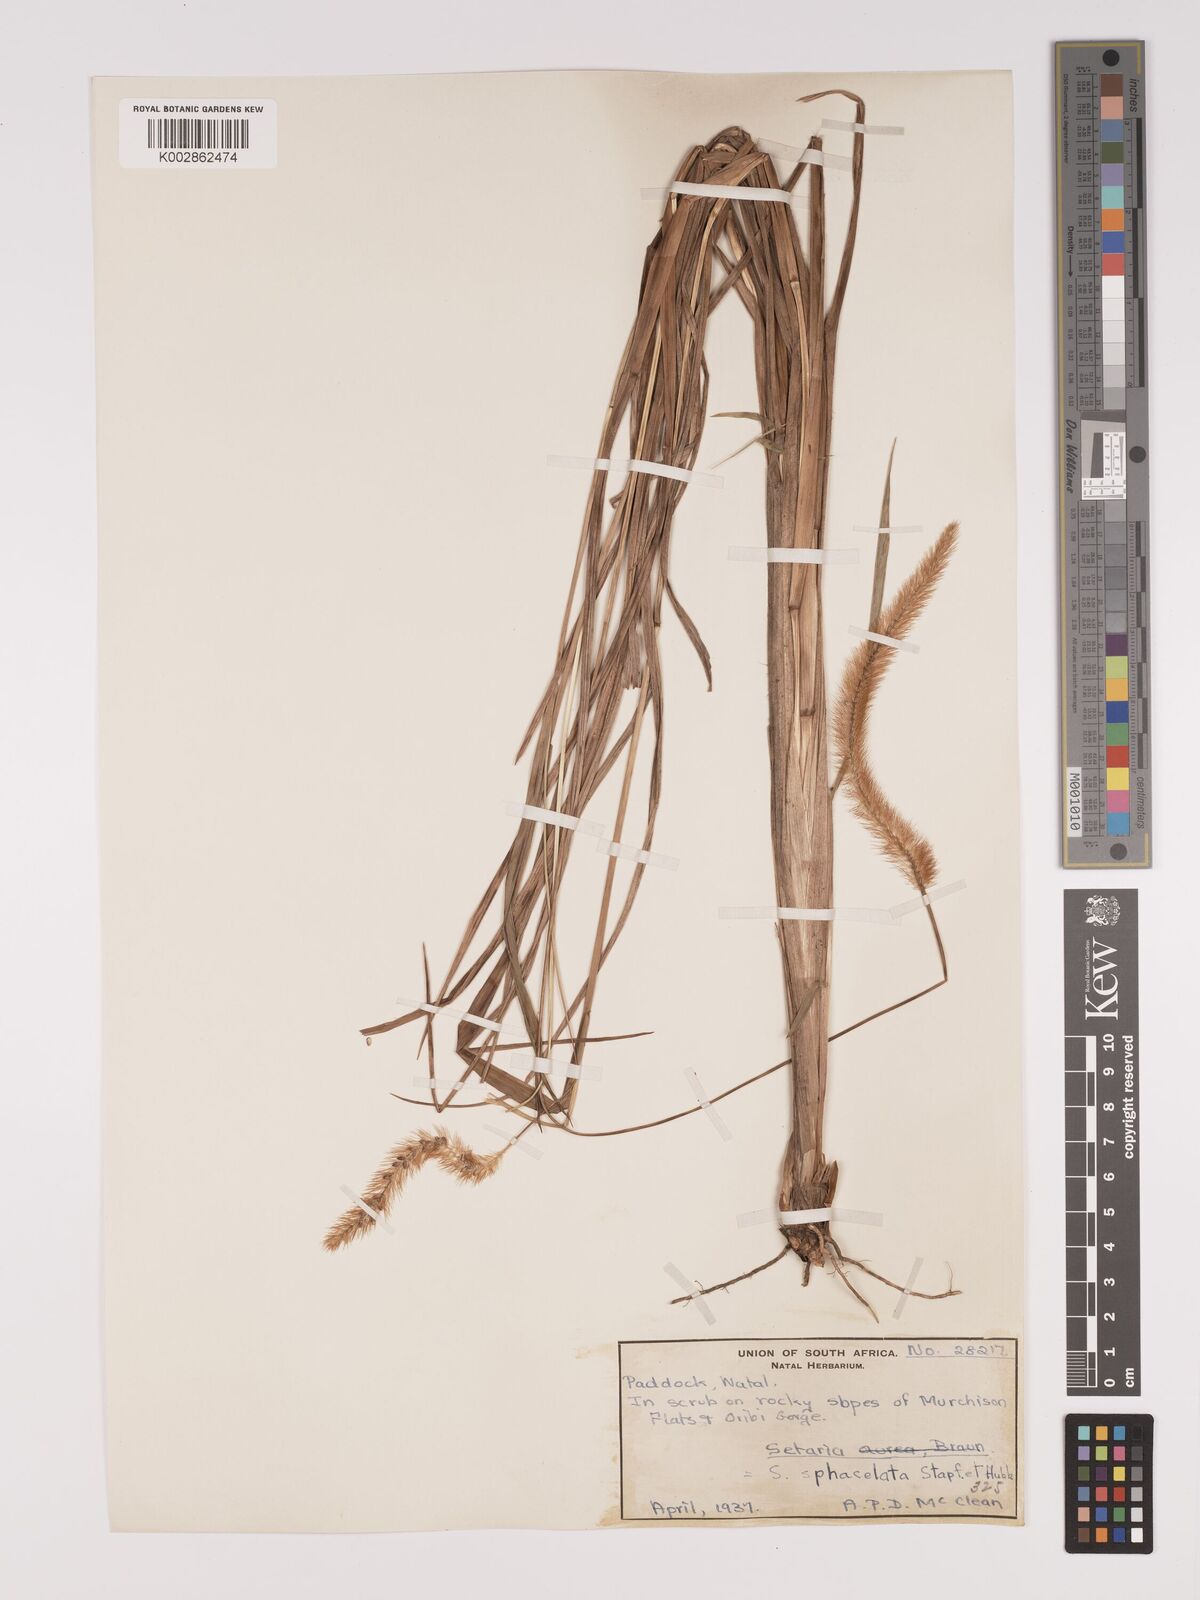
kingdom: Plantae
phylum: Tracheophyta
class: Liliopsida
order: Poales
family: Poaceae
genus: Setaria
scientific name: Setaria sphacelata
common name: African bristlegrass
